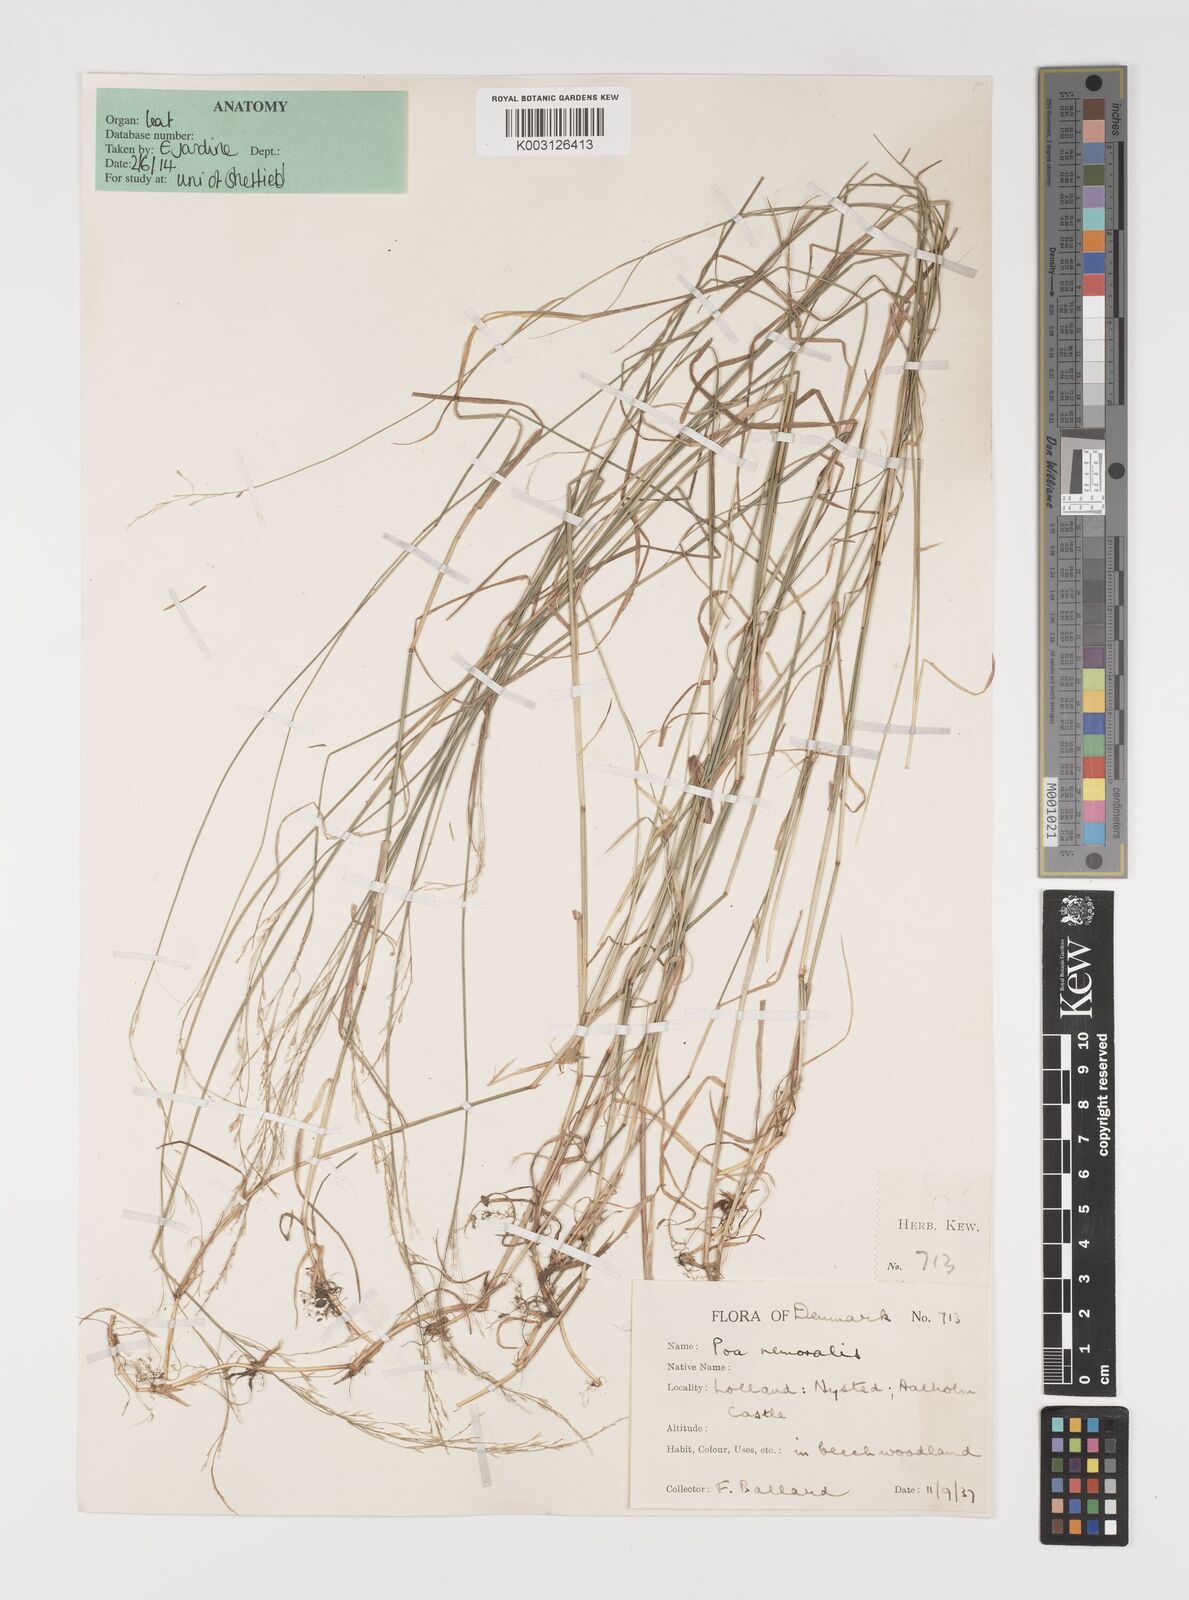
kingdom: Plantae
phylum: Tracheophyta
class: Liliopsida
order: Poales
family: Poaceae
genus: Poa
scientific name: Poa nemoralis
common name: Wood bluegrass
